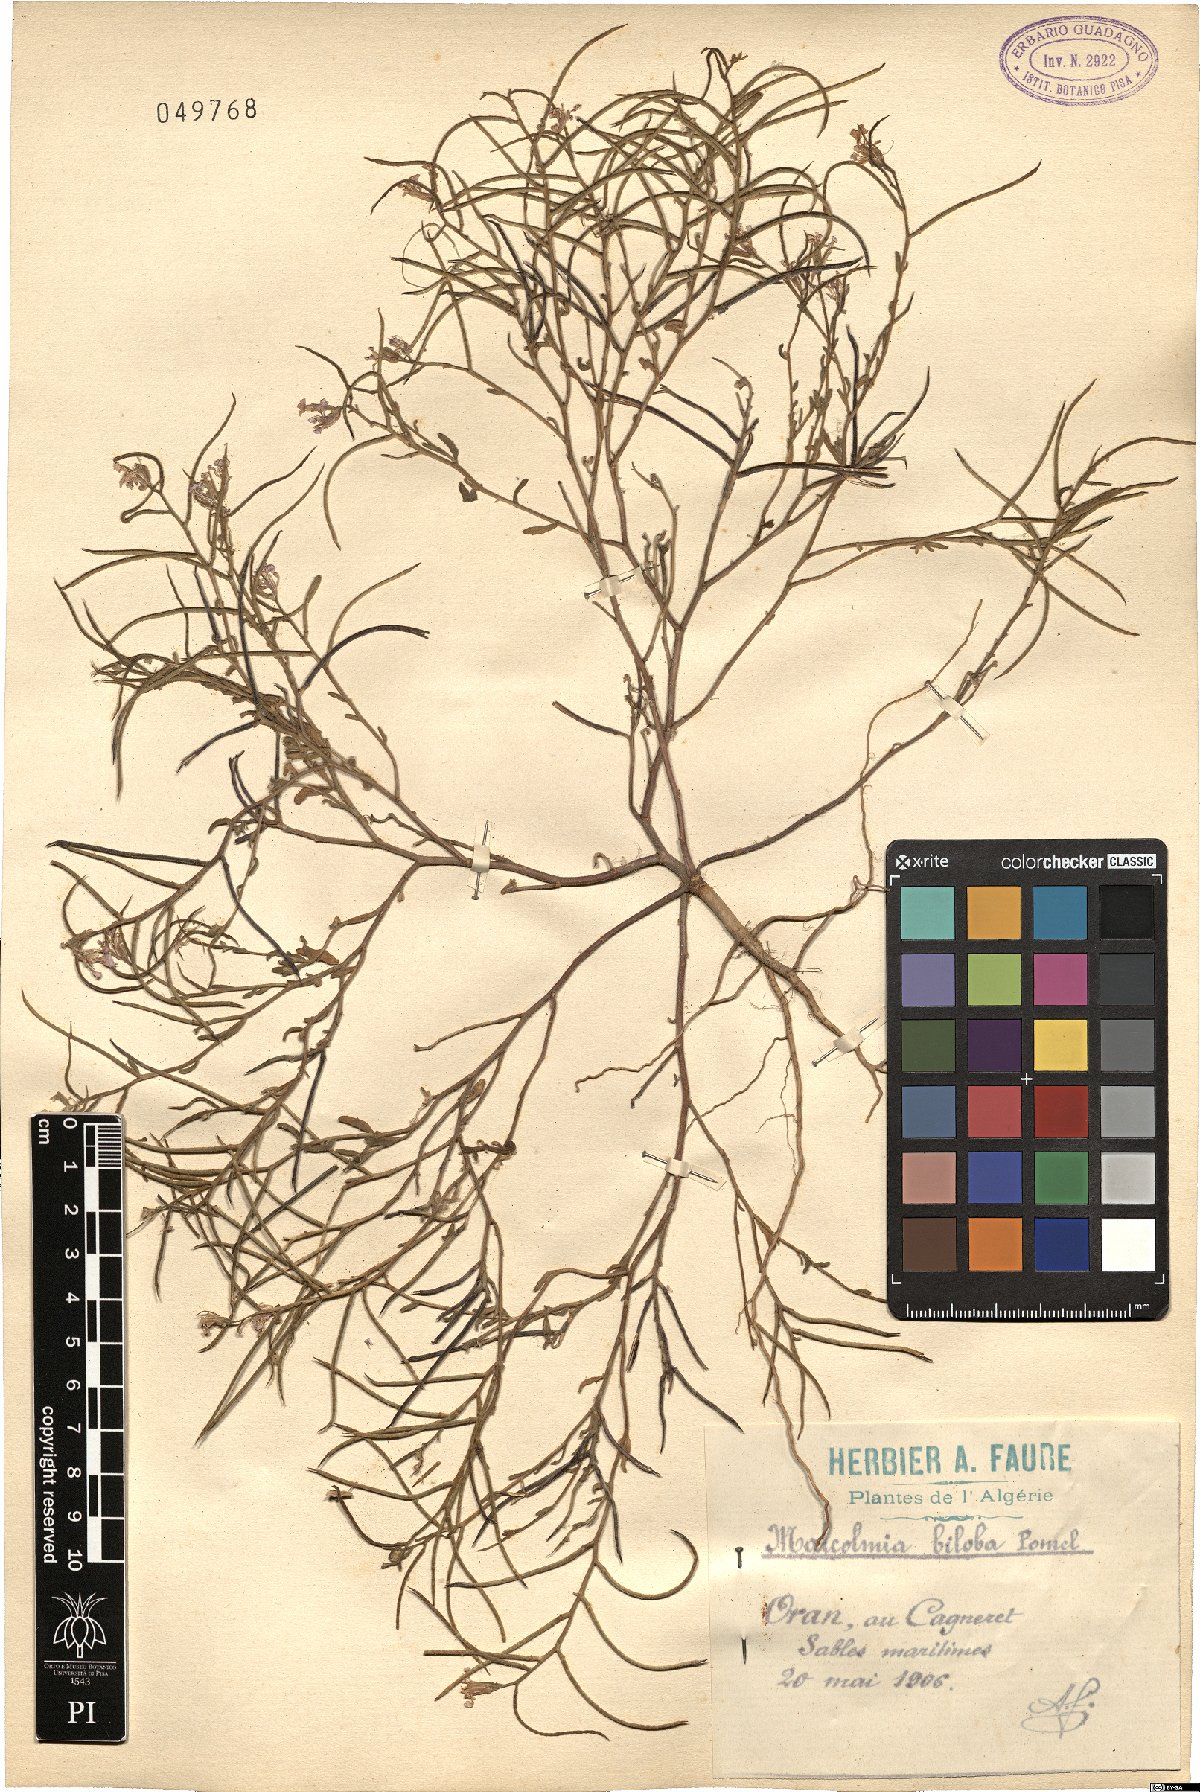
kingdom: Plantae
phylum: Tracheophyta
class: Magnoliopsida
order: Brassicales
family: Brassicaceae
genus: Marcuskochia
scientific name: Marcuskochia arenaria
